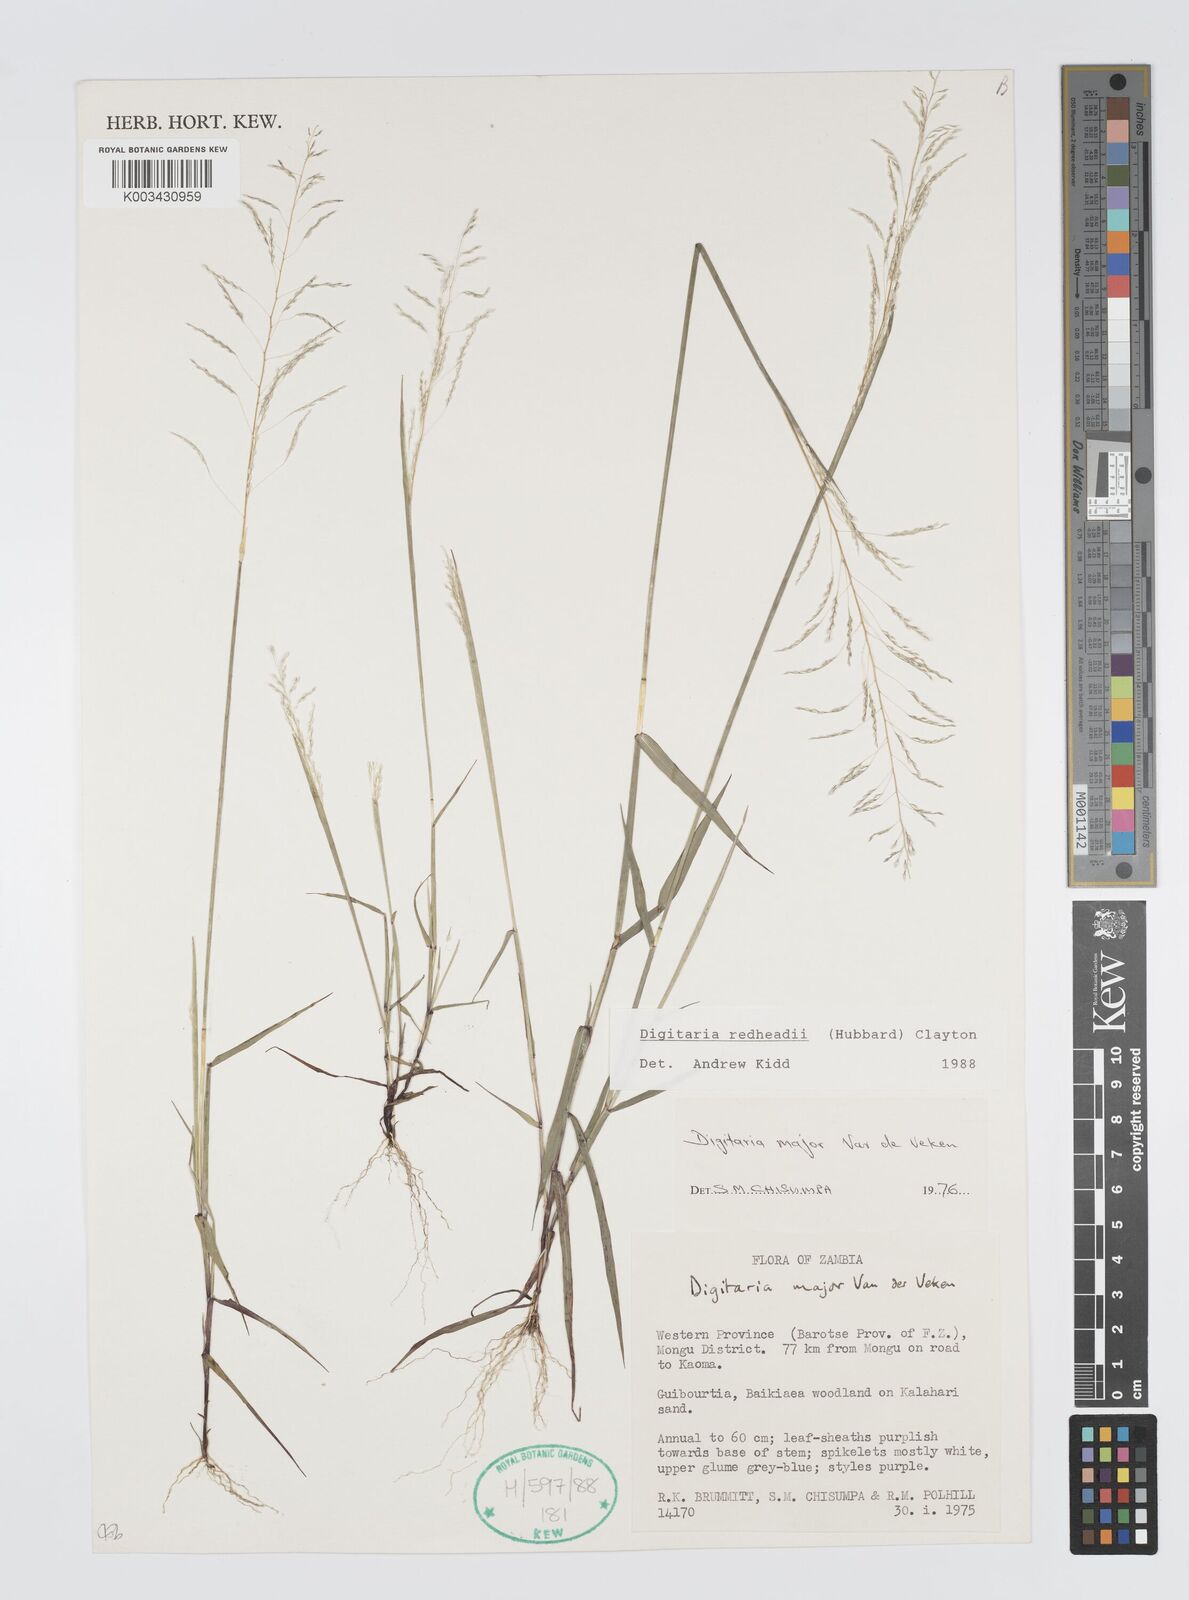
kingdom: Plantae
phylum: Tracheophyta
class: Liliopsida
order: Poales
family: Poaceae
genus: Digitaria
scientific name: Digitaria redheadii
